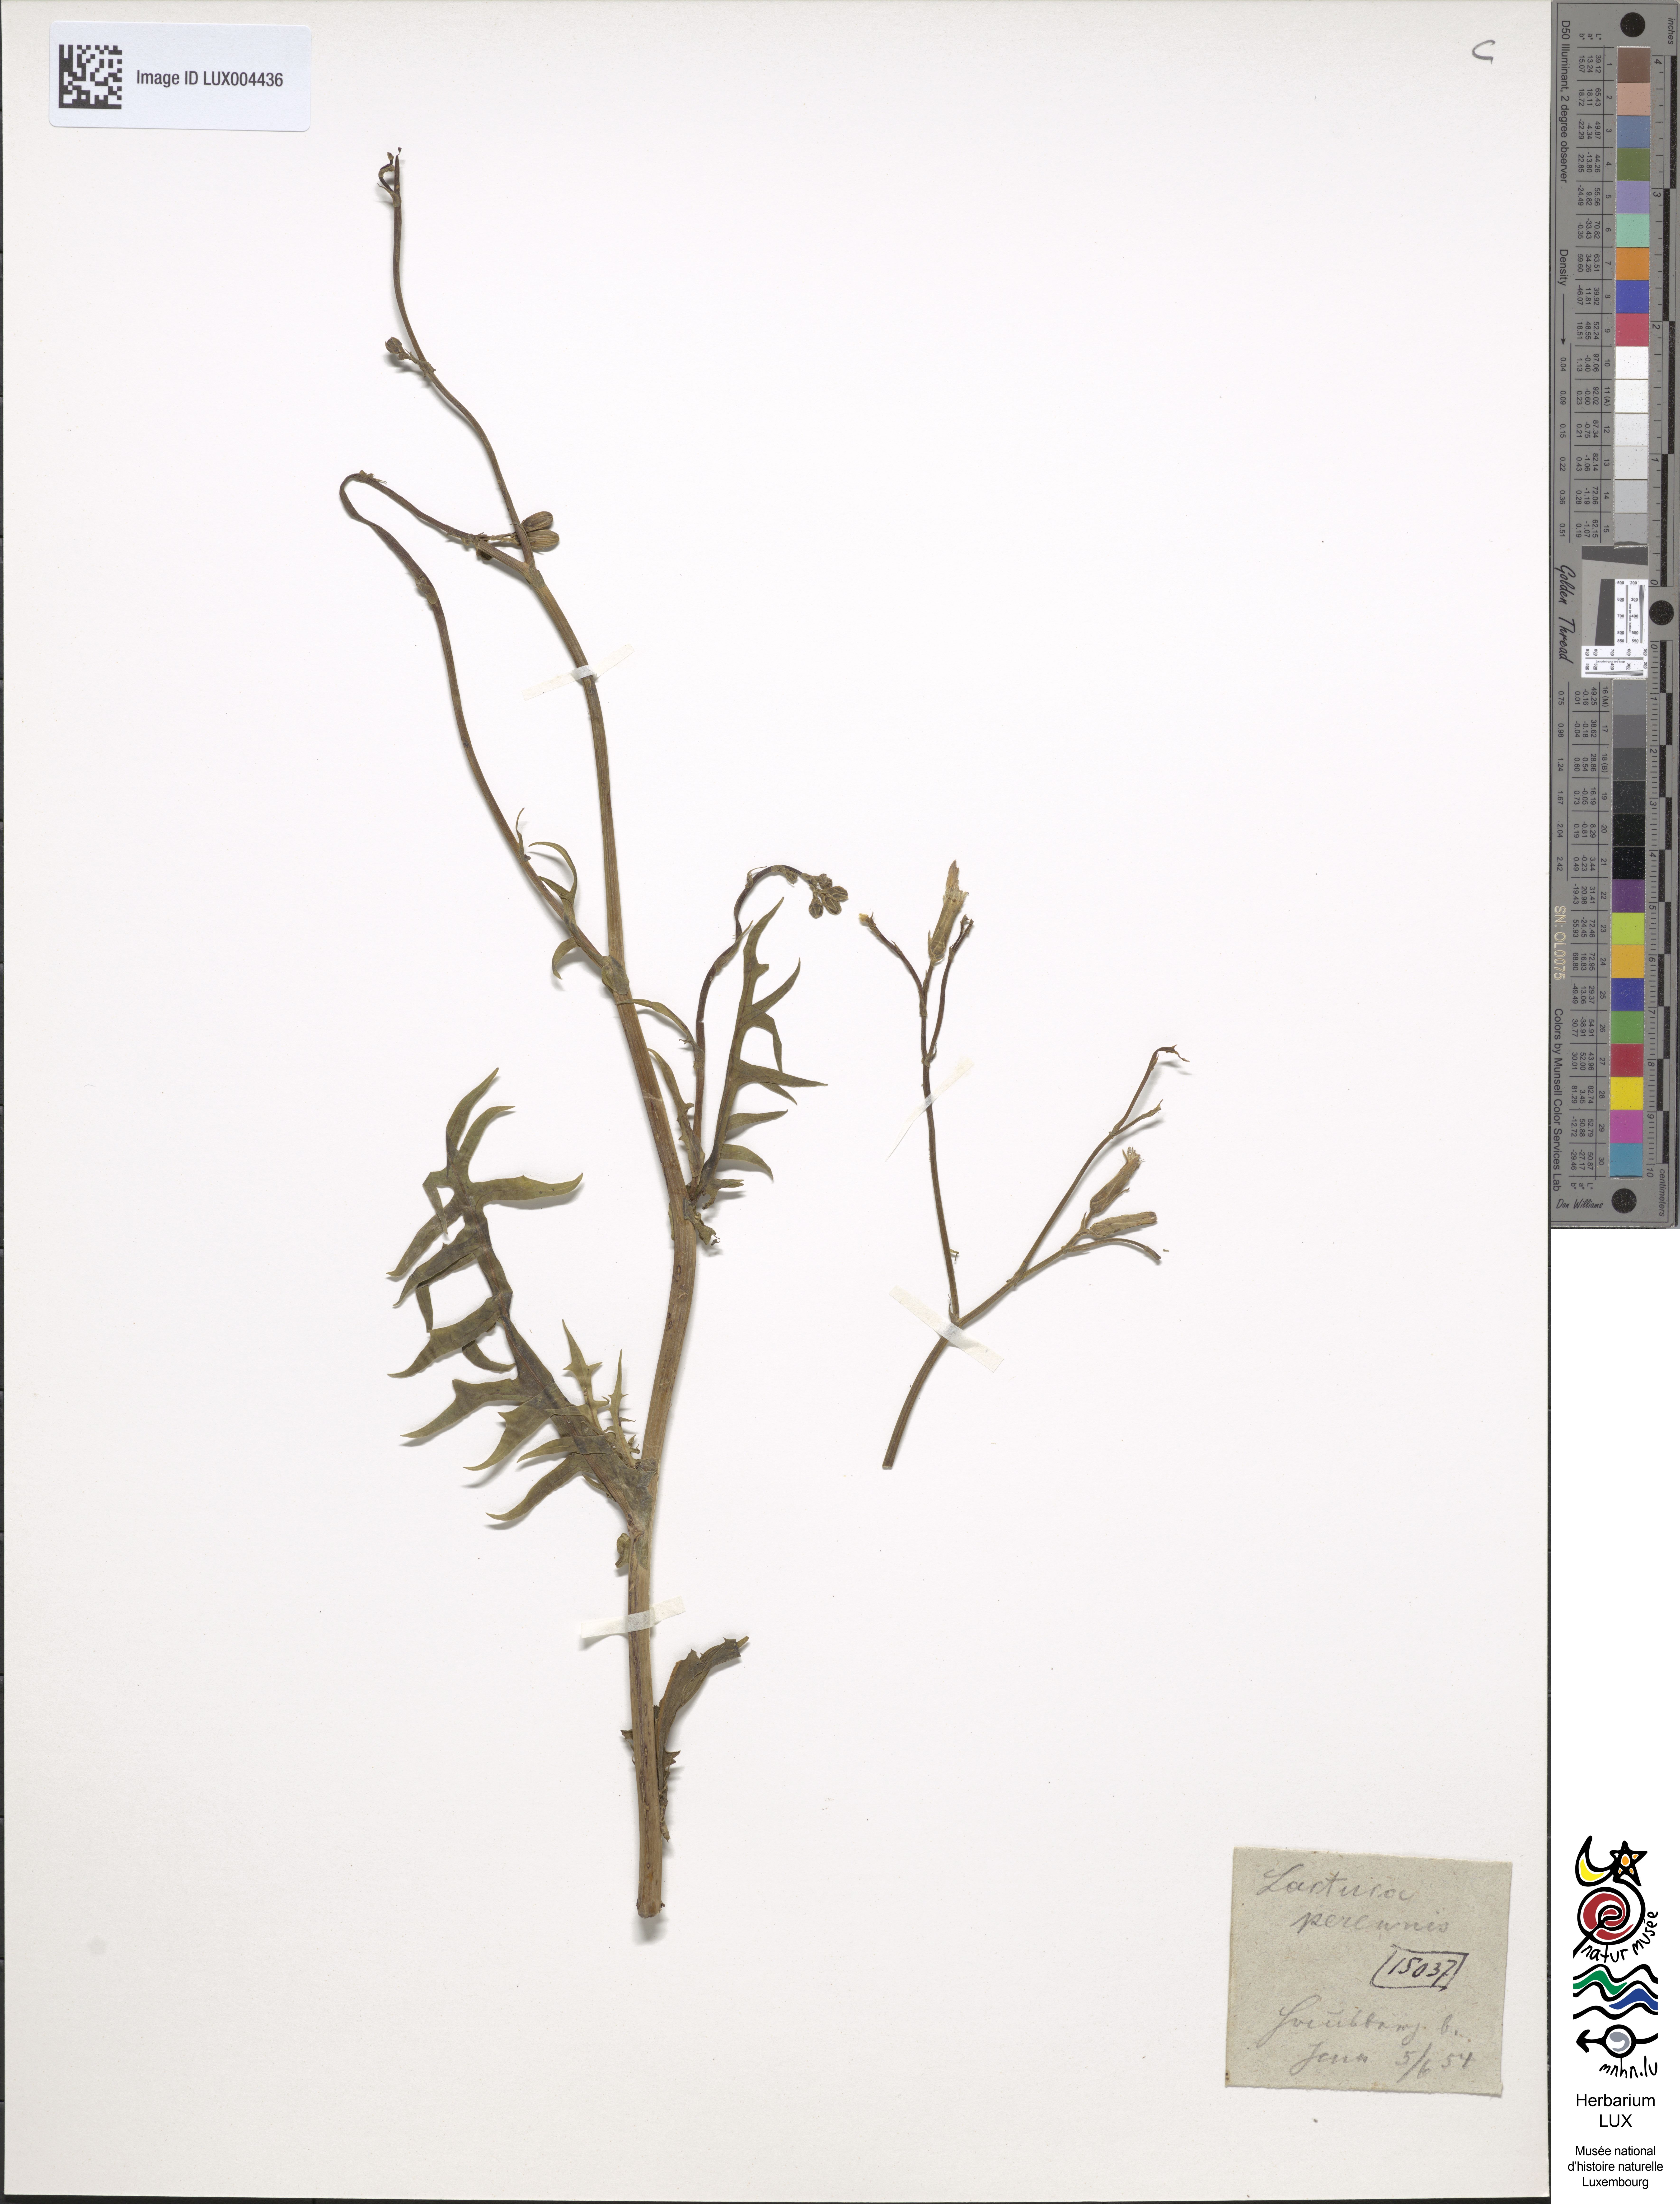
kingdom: Plantae
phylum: Tracheophyta
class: Magnoliopsida
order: Asterales
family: Asteraceae
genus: Lactuca
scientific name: Lactuca perennis
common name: Mountain lettuce
